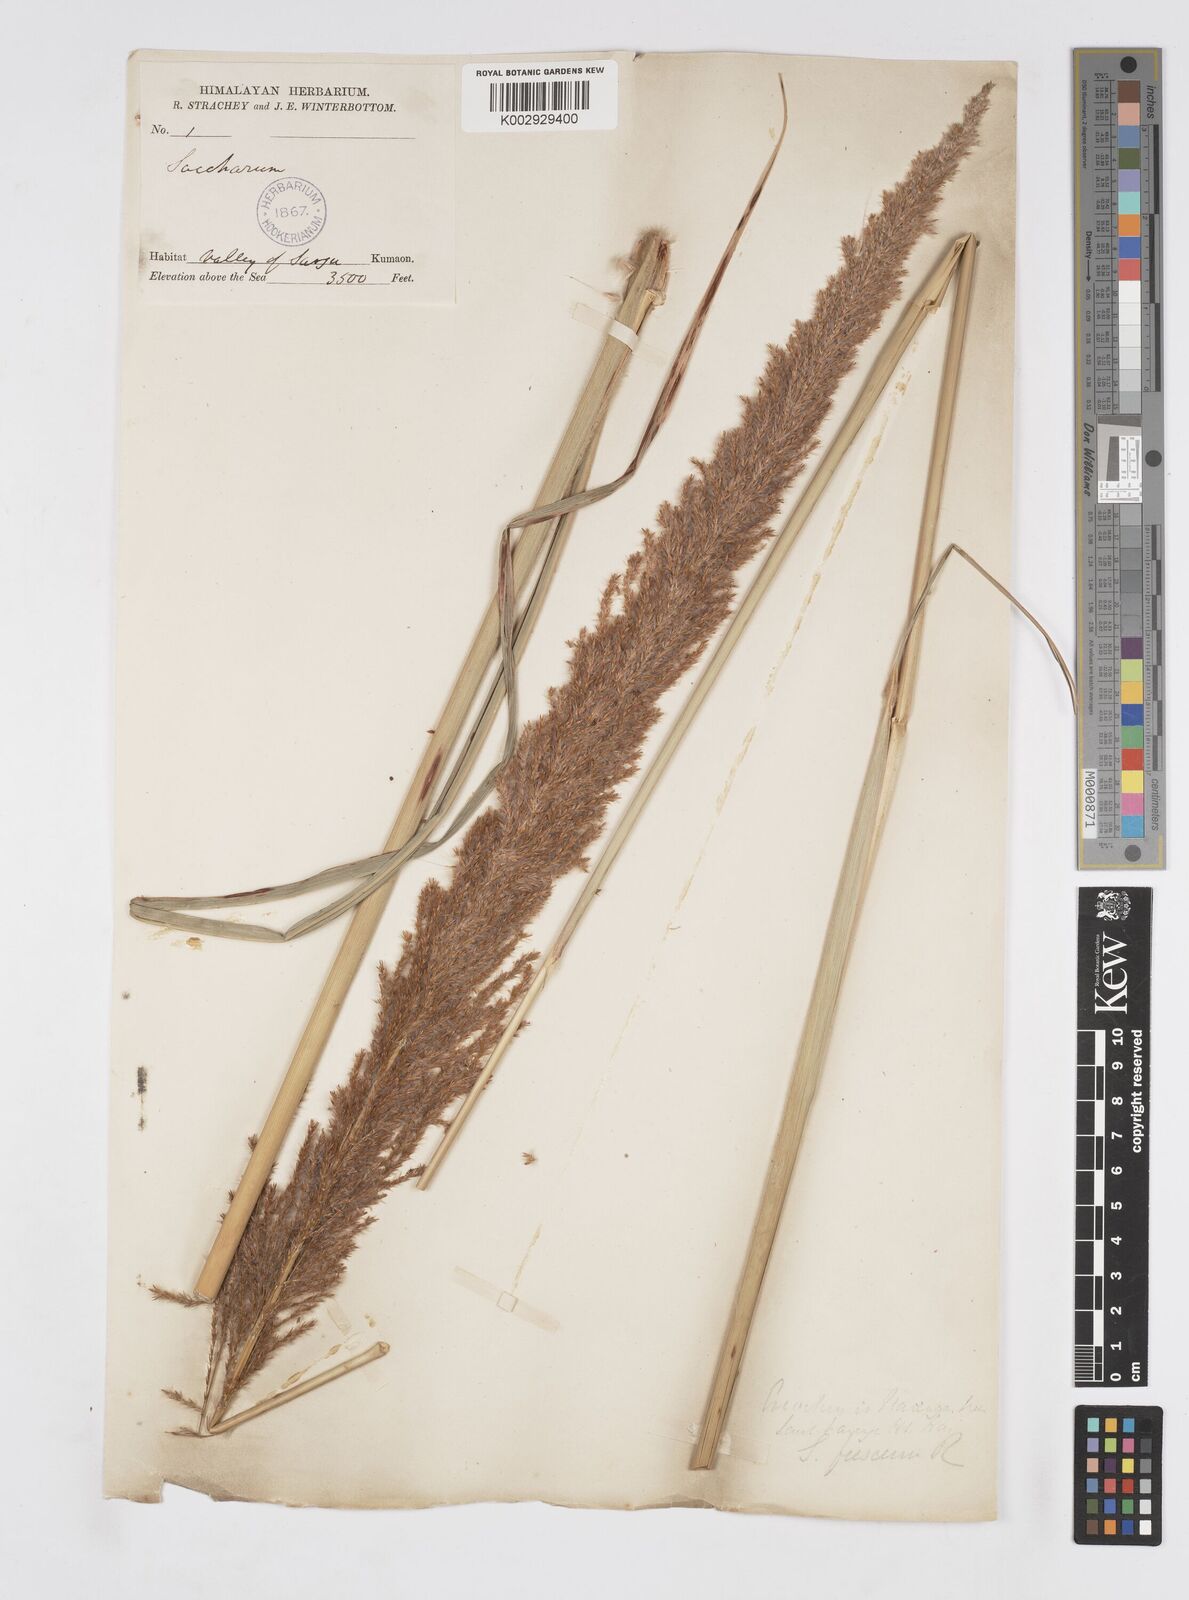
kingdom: Plantae
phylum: Tracheophyta
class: Liliopsida
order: Poales
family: Poaceae
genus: Narenga
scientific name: Narenga porphyrocoma
